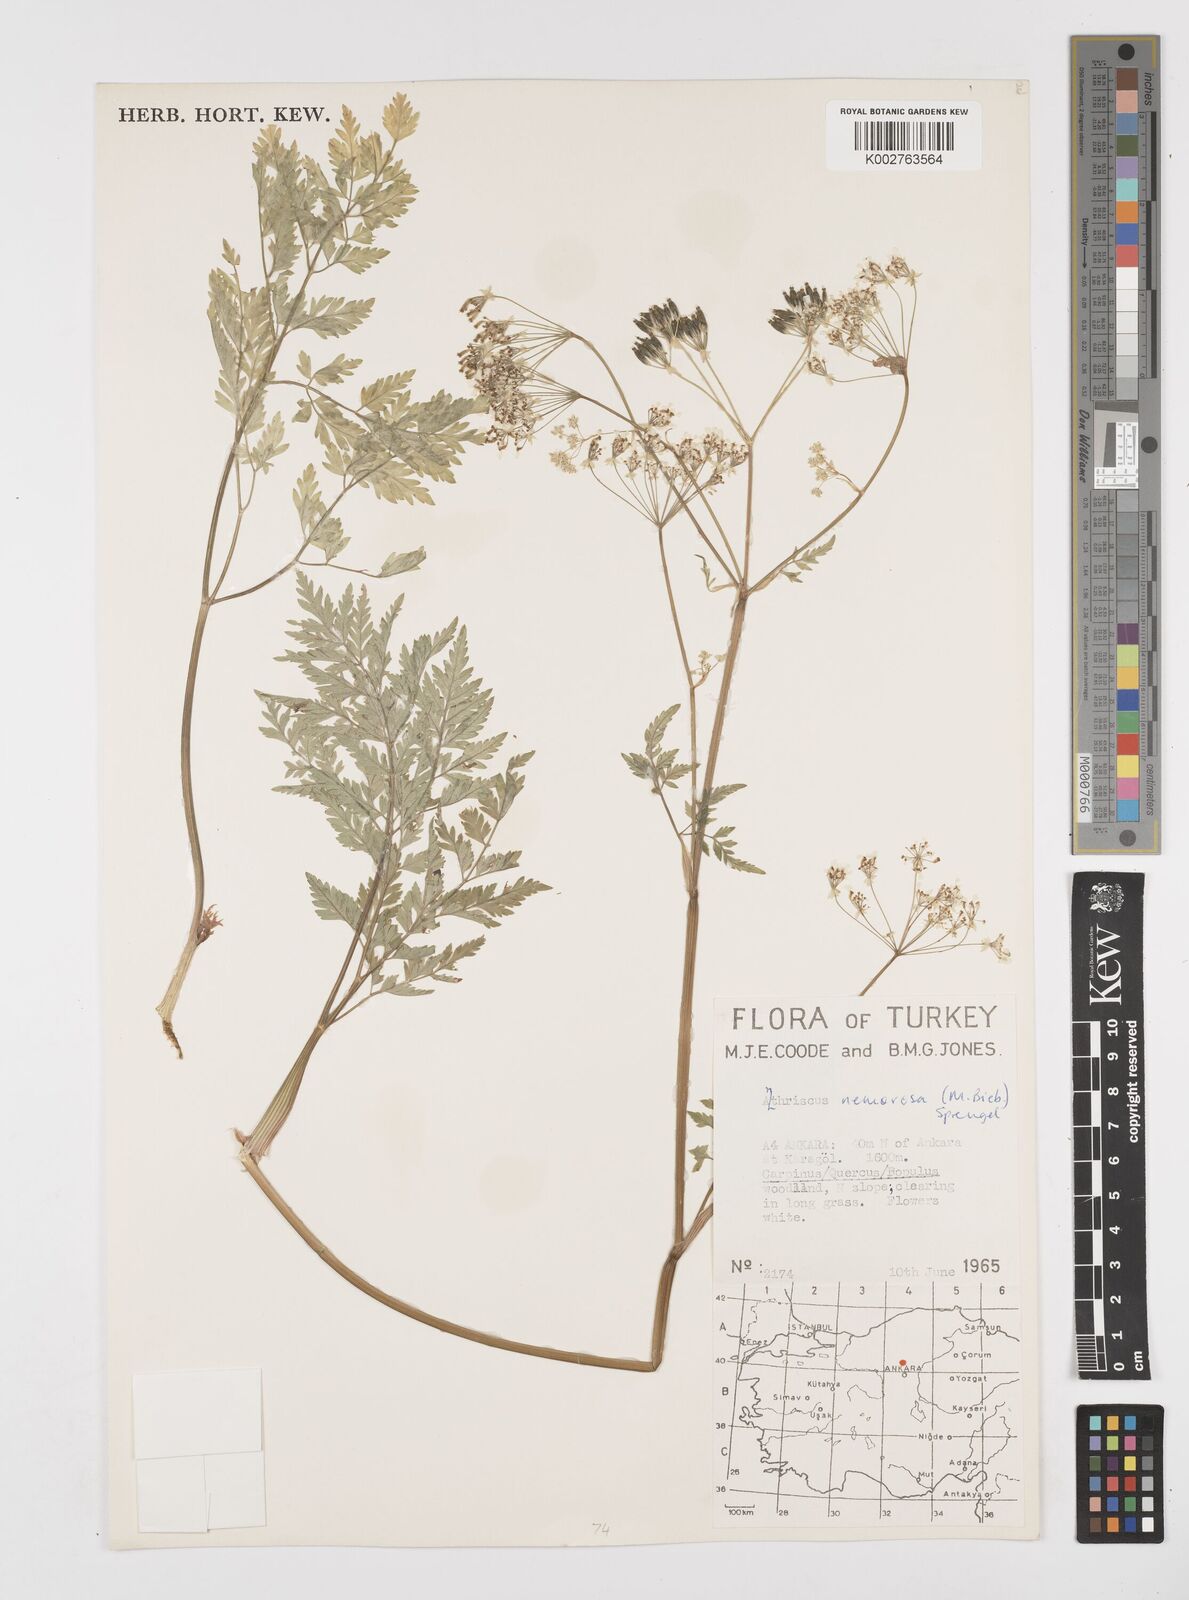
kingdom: Plantae
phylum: Tracheophyta
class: Magnoliopsida
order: Apiales
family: Apiaceae
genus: Anthriscus
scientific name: Anthriscus sylvestris
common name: Cow parsley
